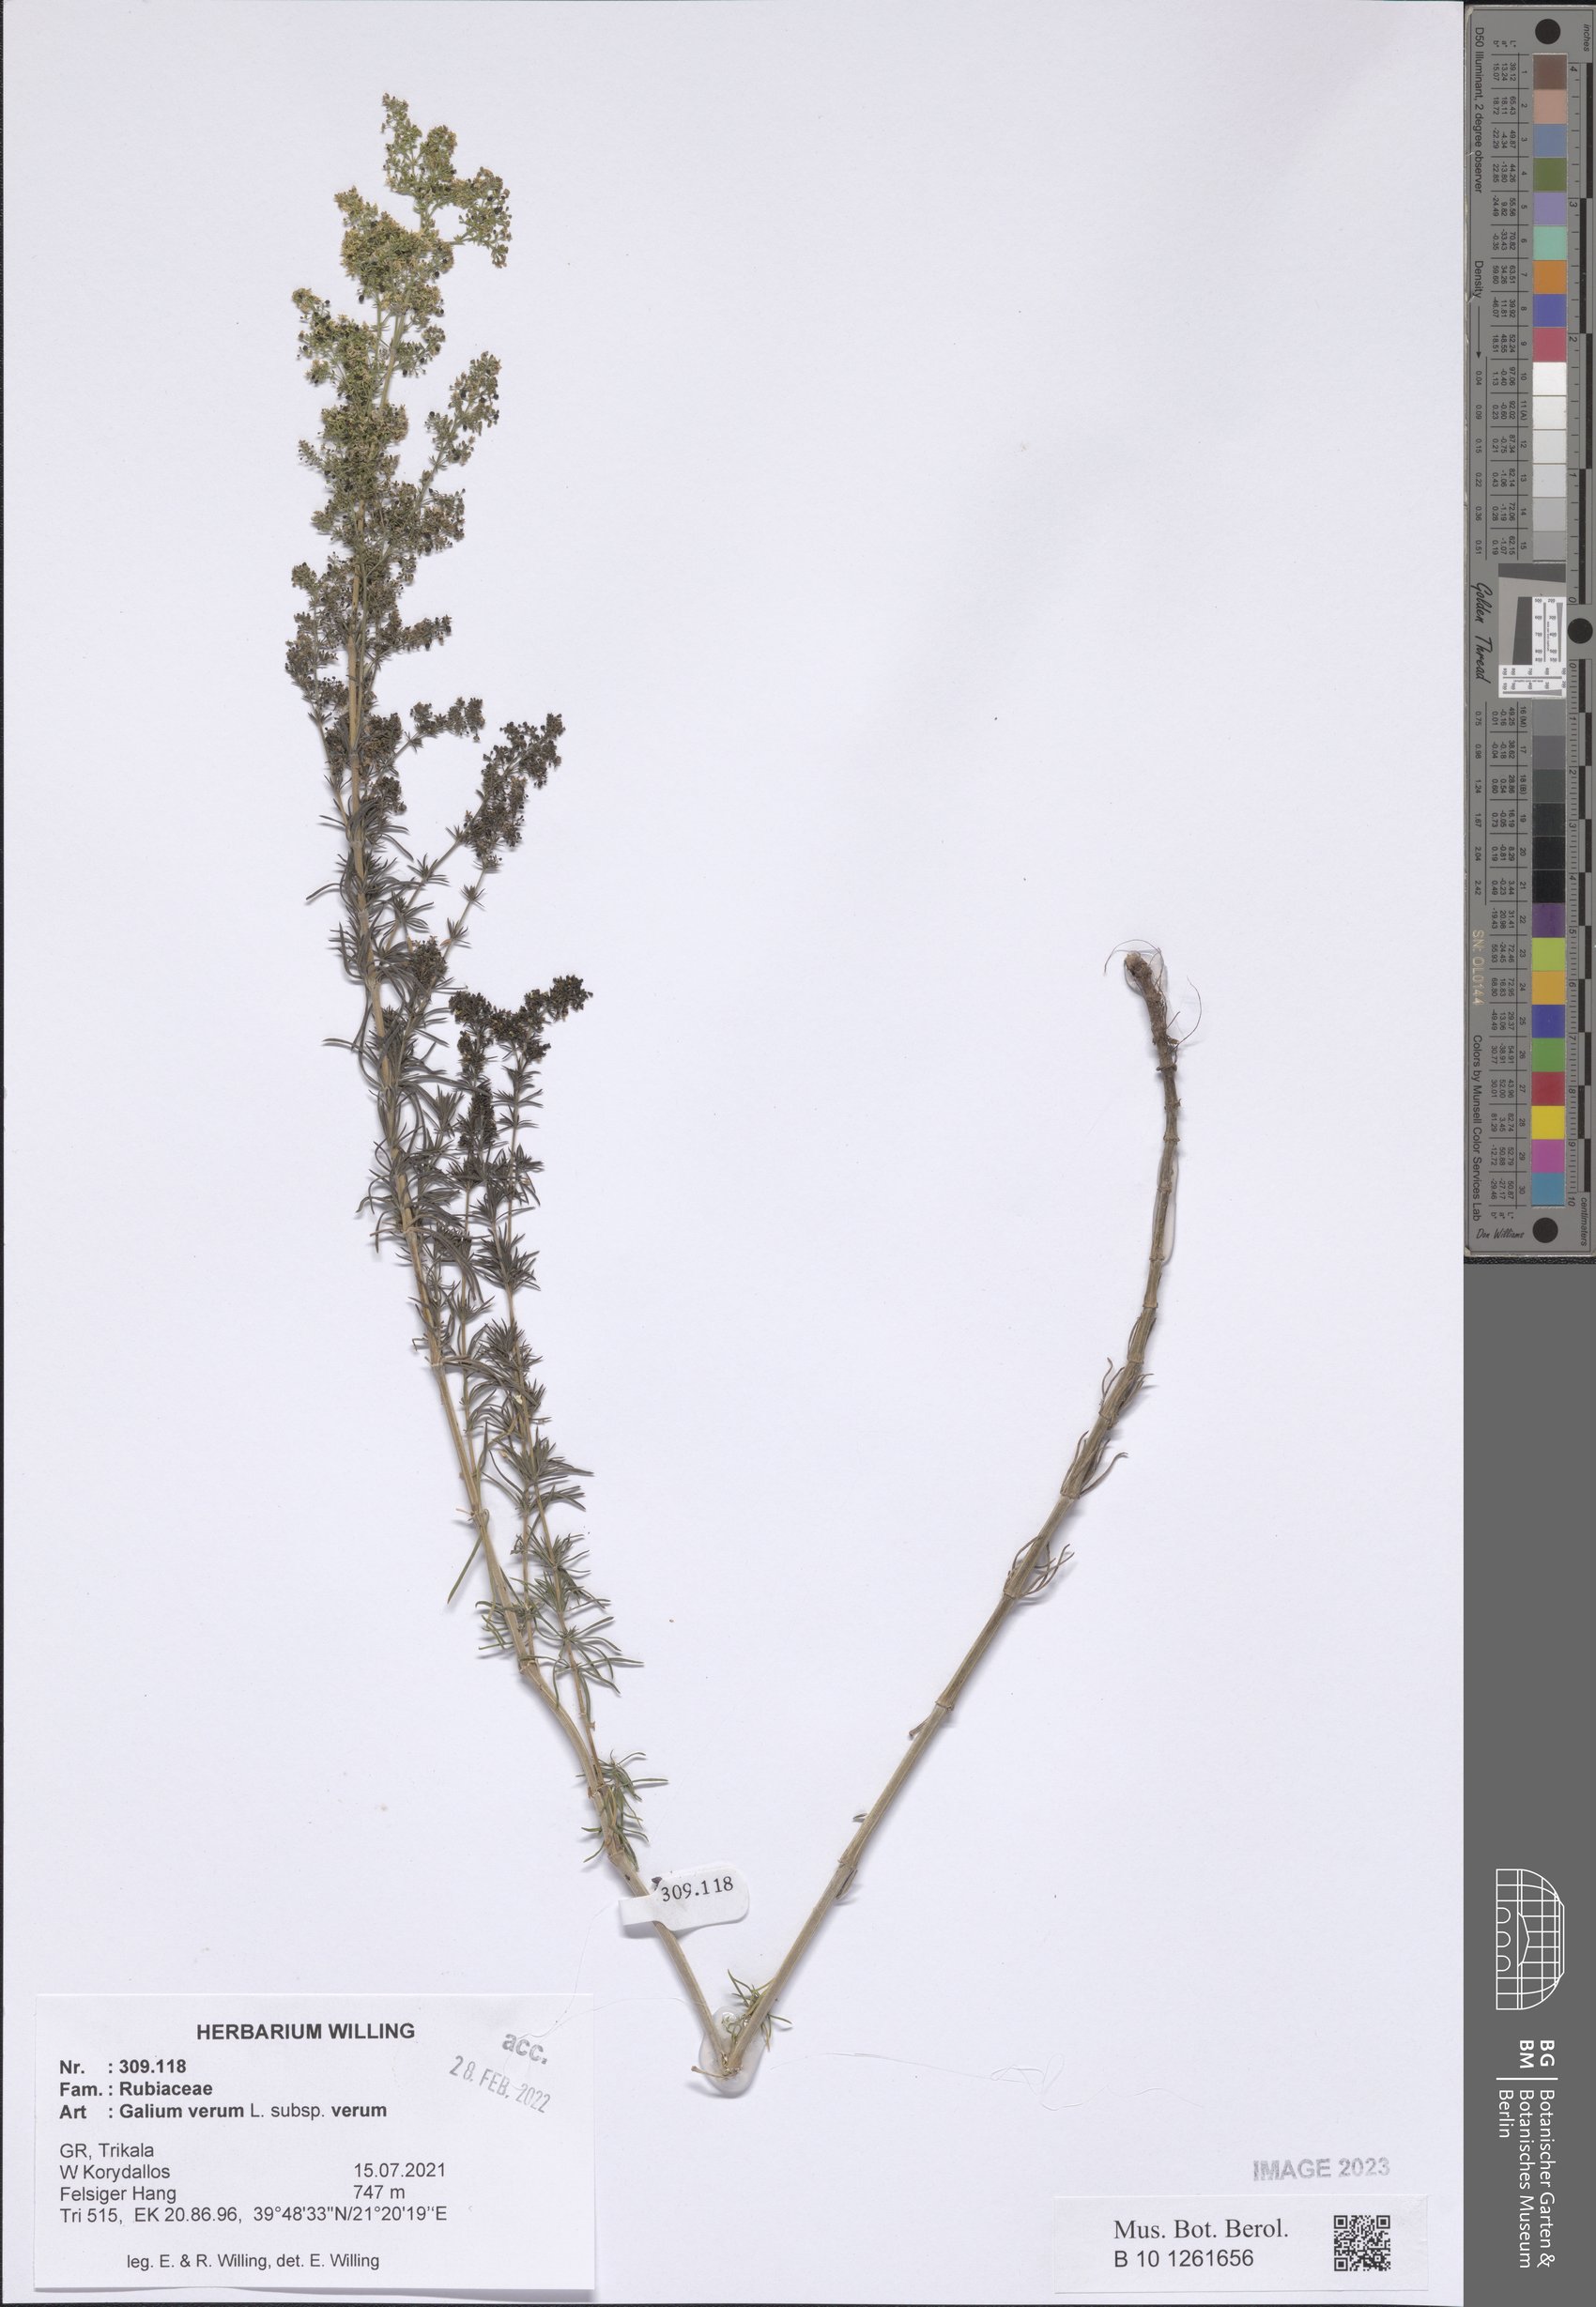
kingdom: Plantae
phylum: Tracheophyta
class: Magnoliopsida
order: Gentianales
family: Rubiaceae
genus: Galium
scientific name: Galium verum
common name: Lady's bedstraw
